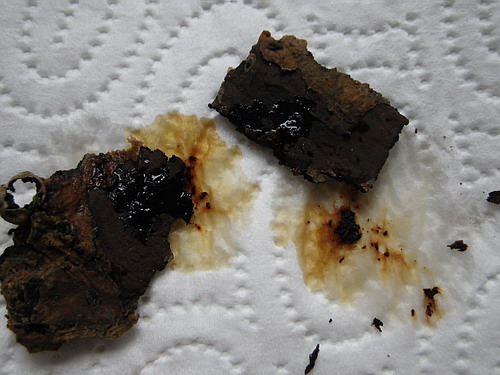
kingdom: Fungi
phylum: Ascomycota
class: Sordariomycetes
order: Xylariales
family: Hypoxylaceae
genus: Hypoxylon
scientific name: Hypoxylon petriniae
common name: nedsænket kulbær
